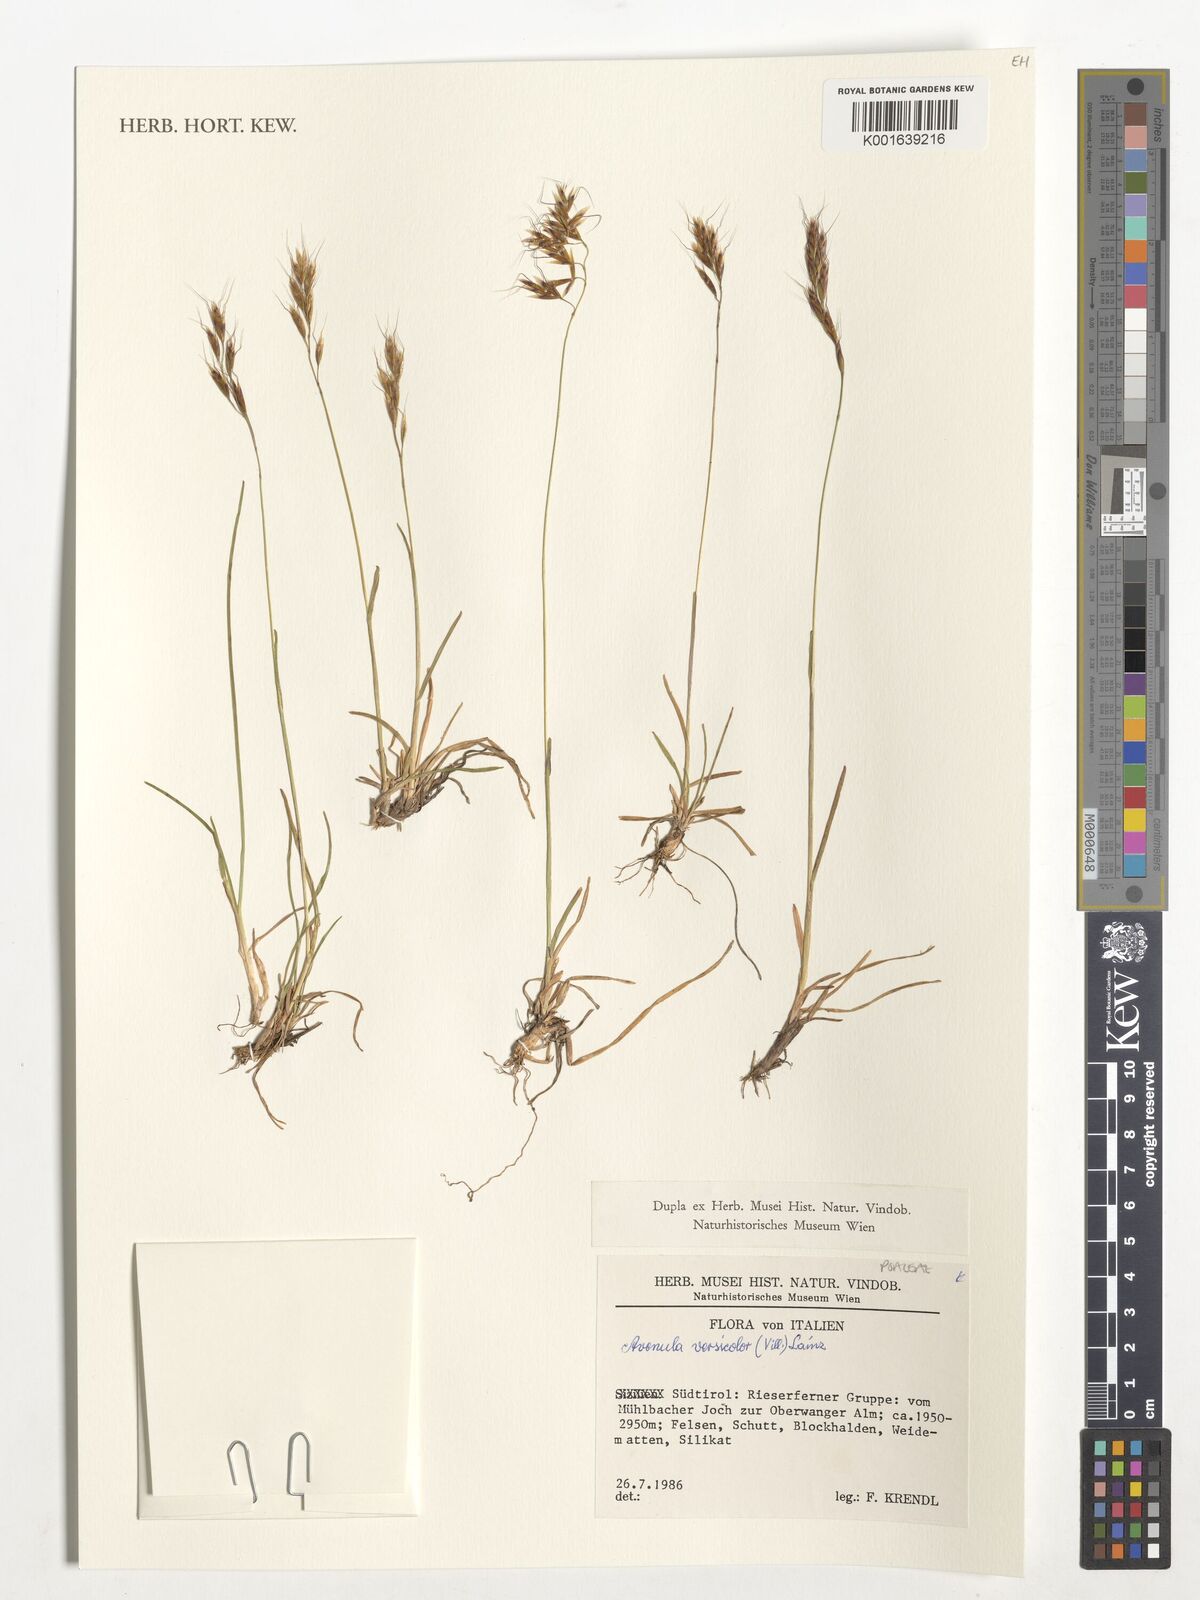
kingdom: Plantae
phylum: Tracheophyta
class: Liliopsida
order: Poales
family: Poaceae
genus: Helictochloa
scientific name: Helictochloa versicolor
